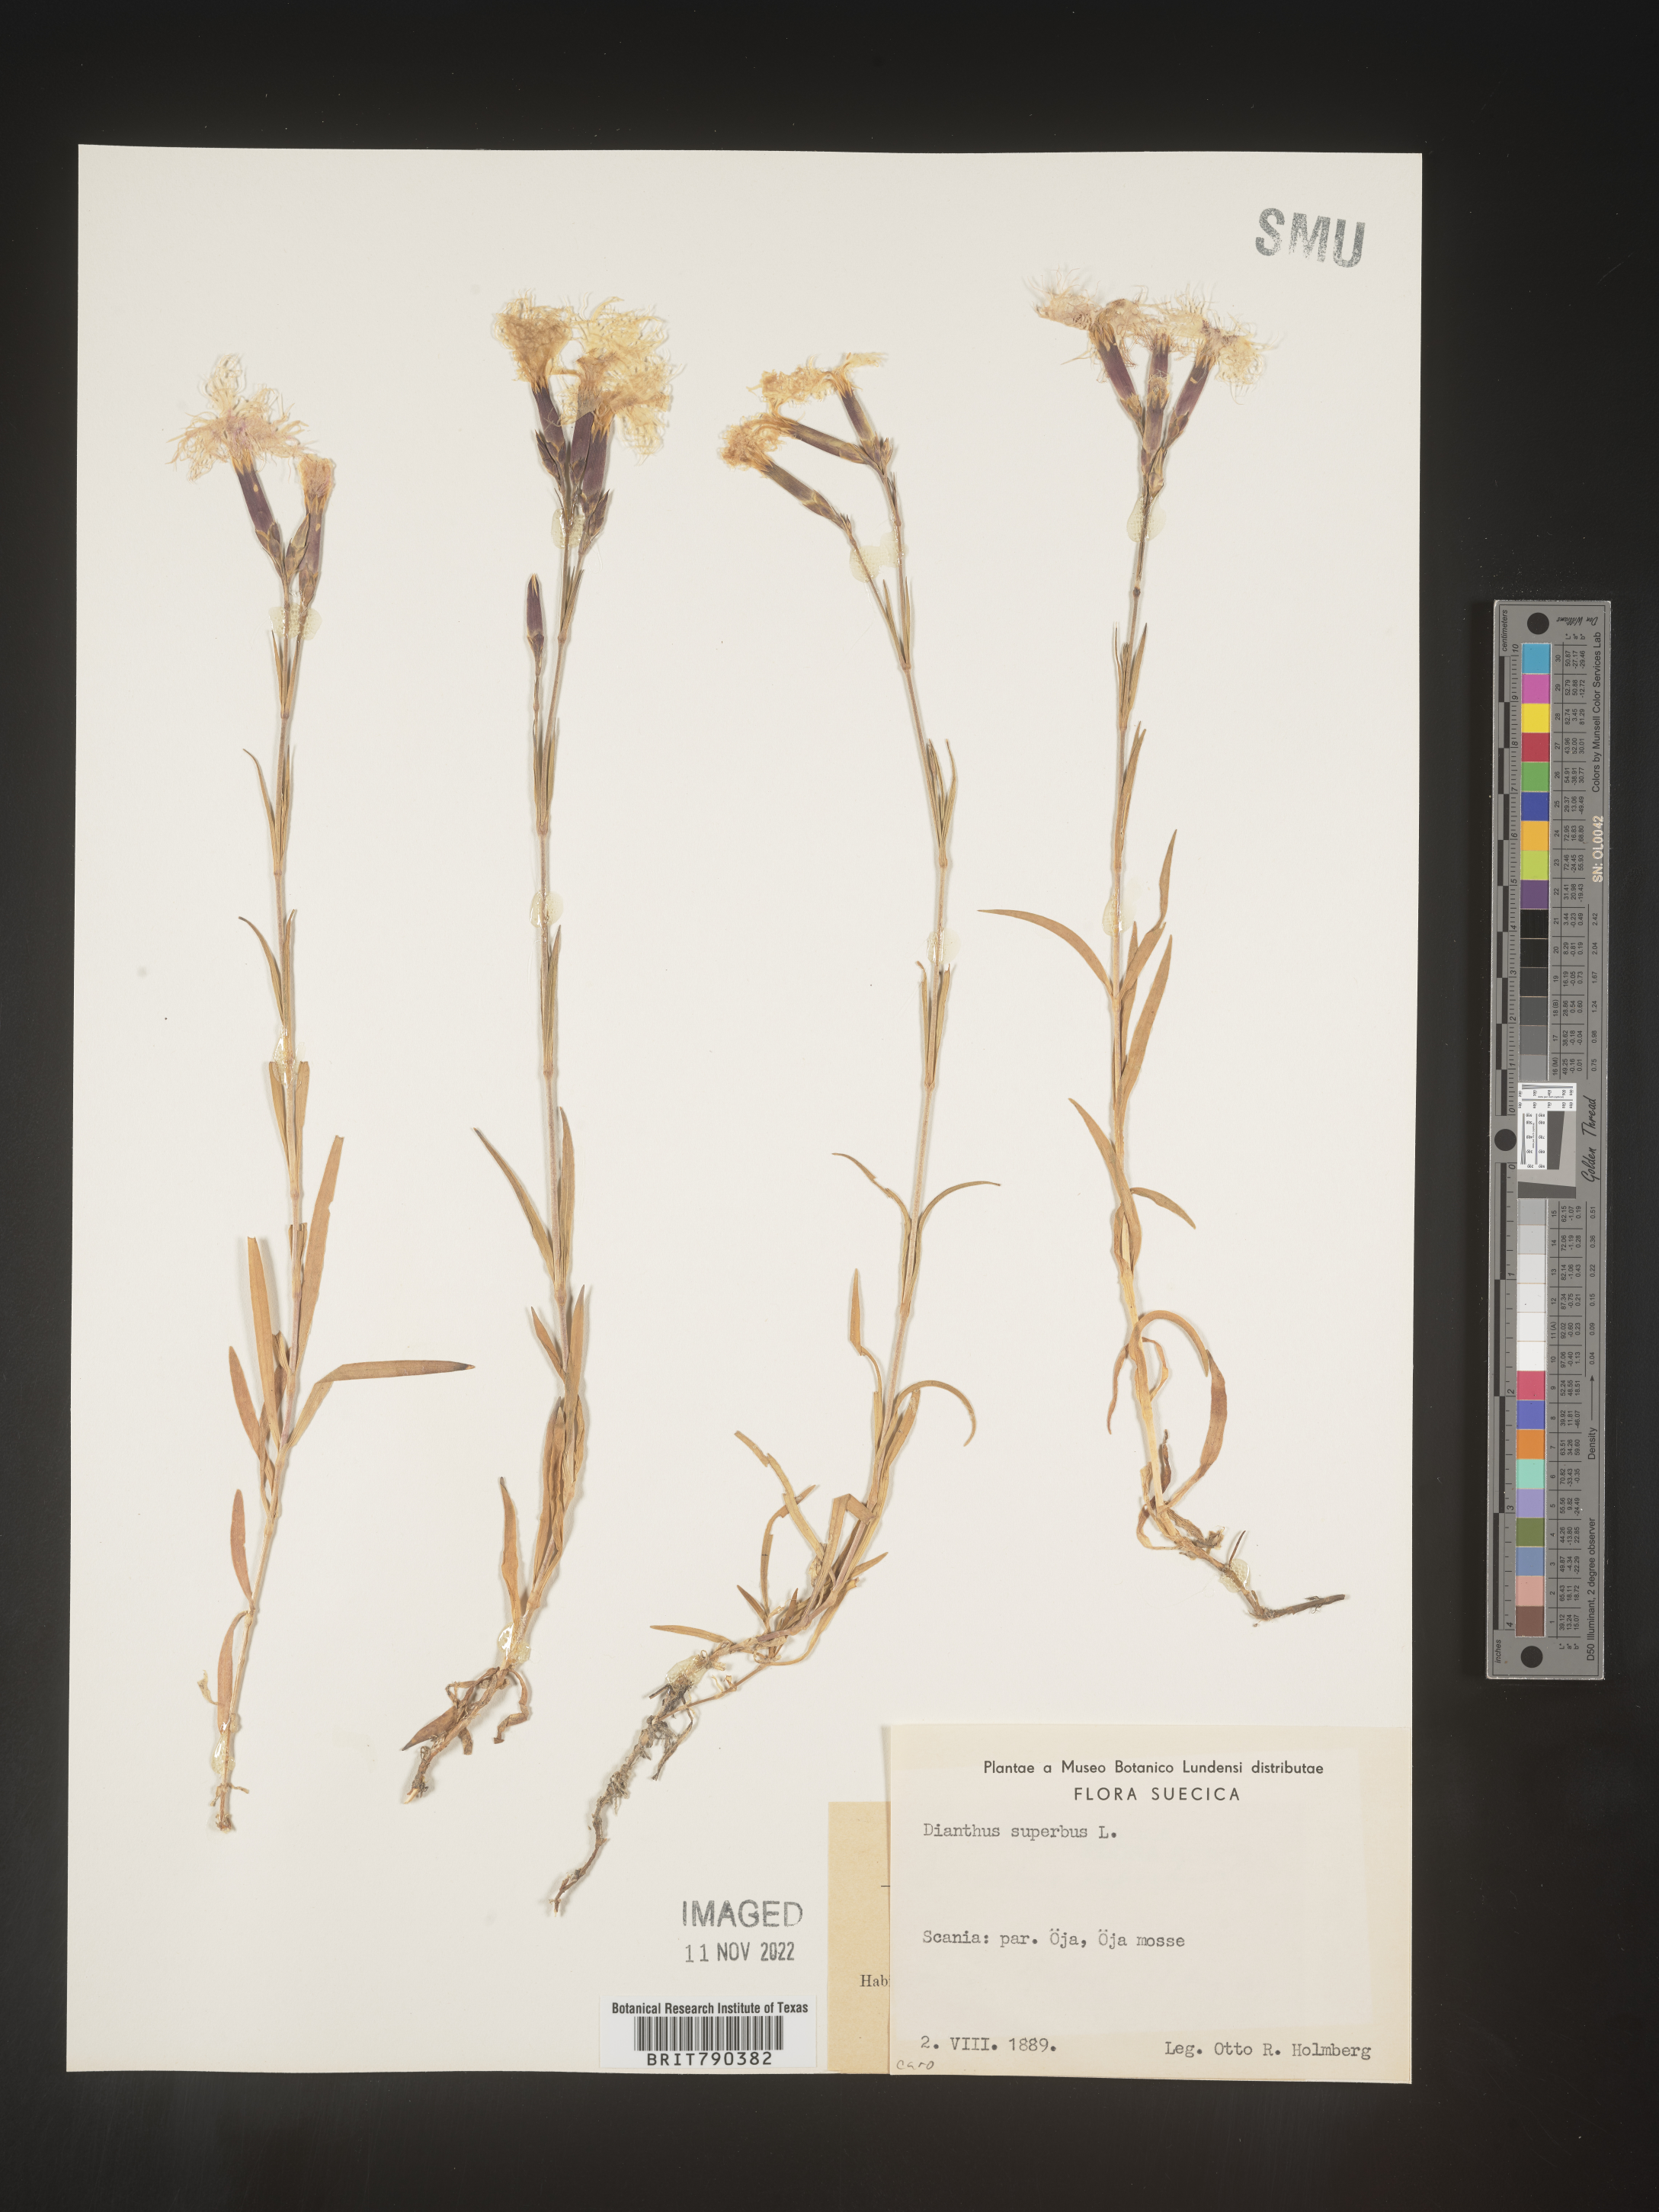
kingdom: Plantae
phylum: Tracheophyta
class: Magnoliopsida
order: Caryophyllales
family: Caryophyllaceae
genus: Dianthus
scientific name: Dianthus superbus
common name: Fringed pink
